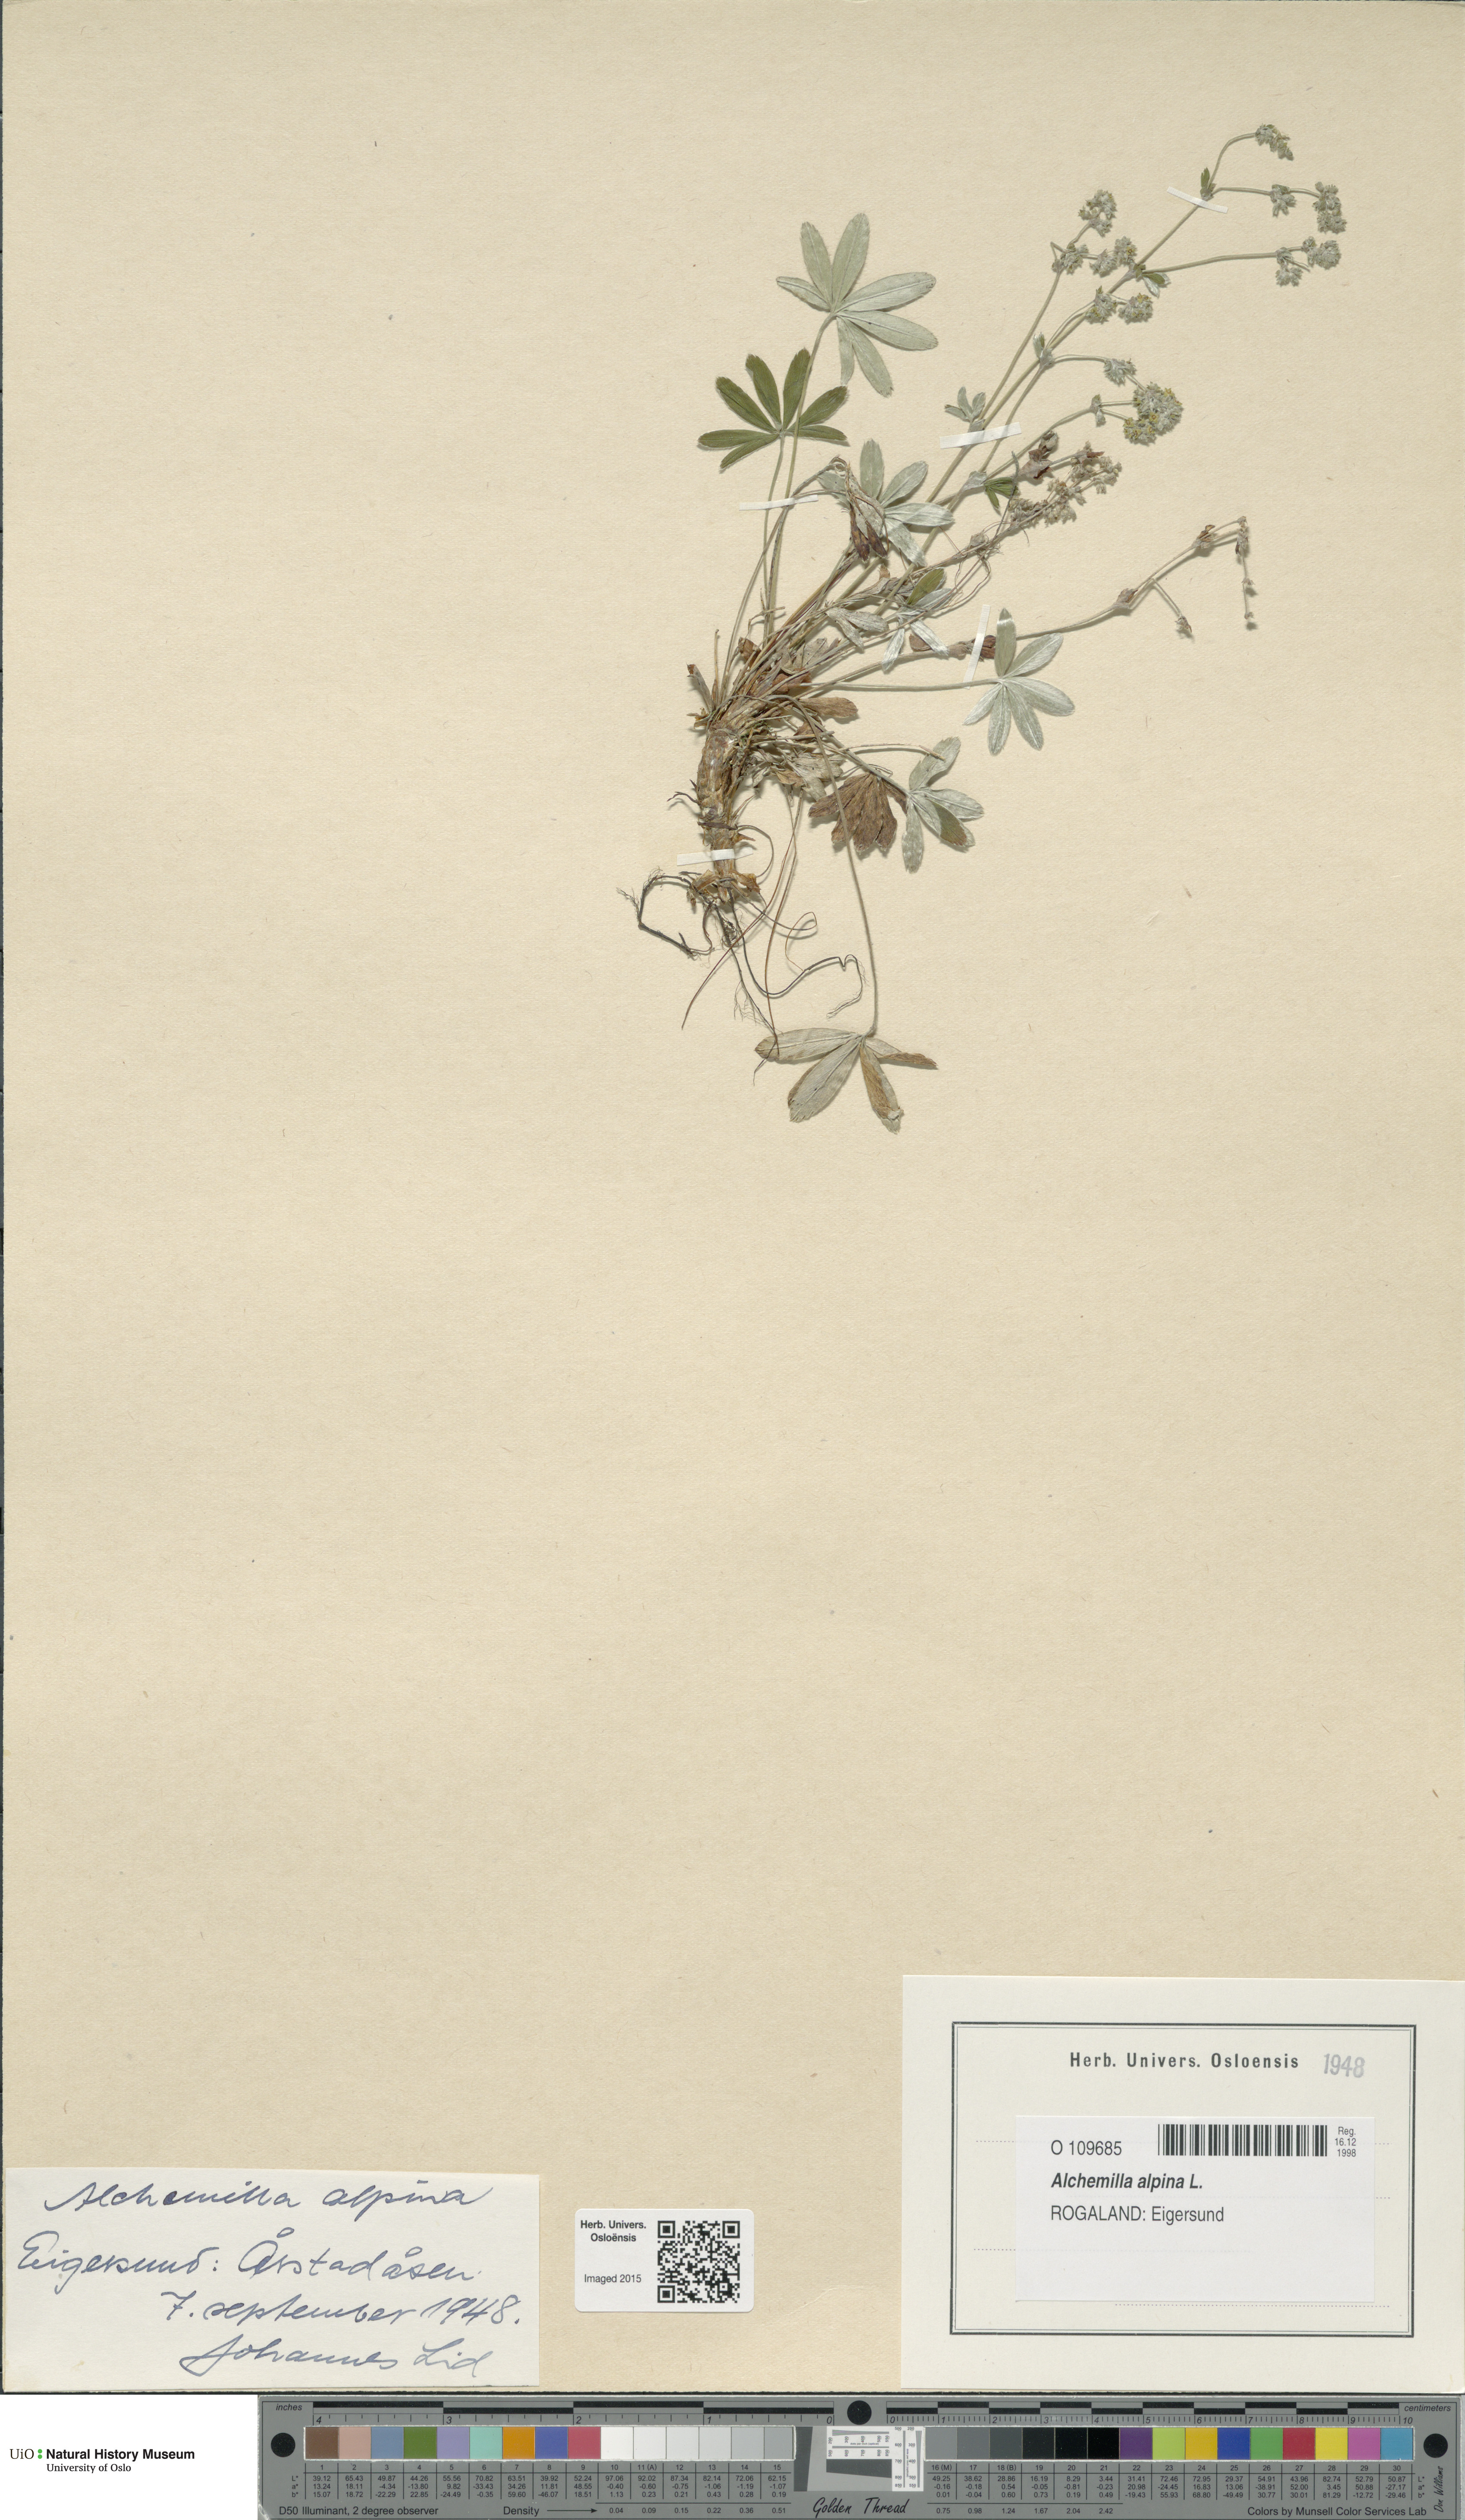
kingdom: Plantae
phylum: Tracheophyta
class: Magnoliopsida
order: Rosales
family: Rosaceae
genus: Alchemilla
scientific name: Alchemilla alpina
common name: Alpine lady's-mantle
